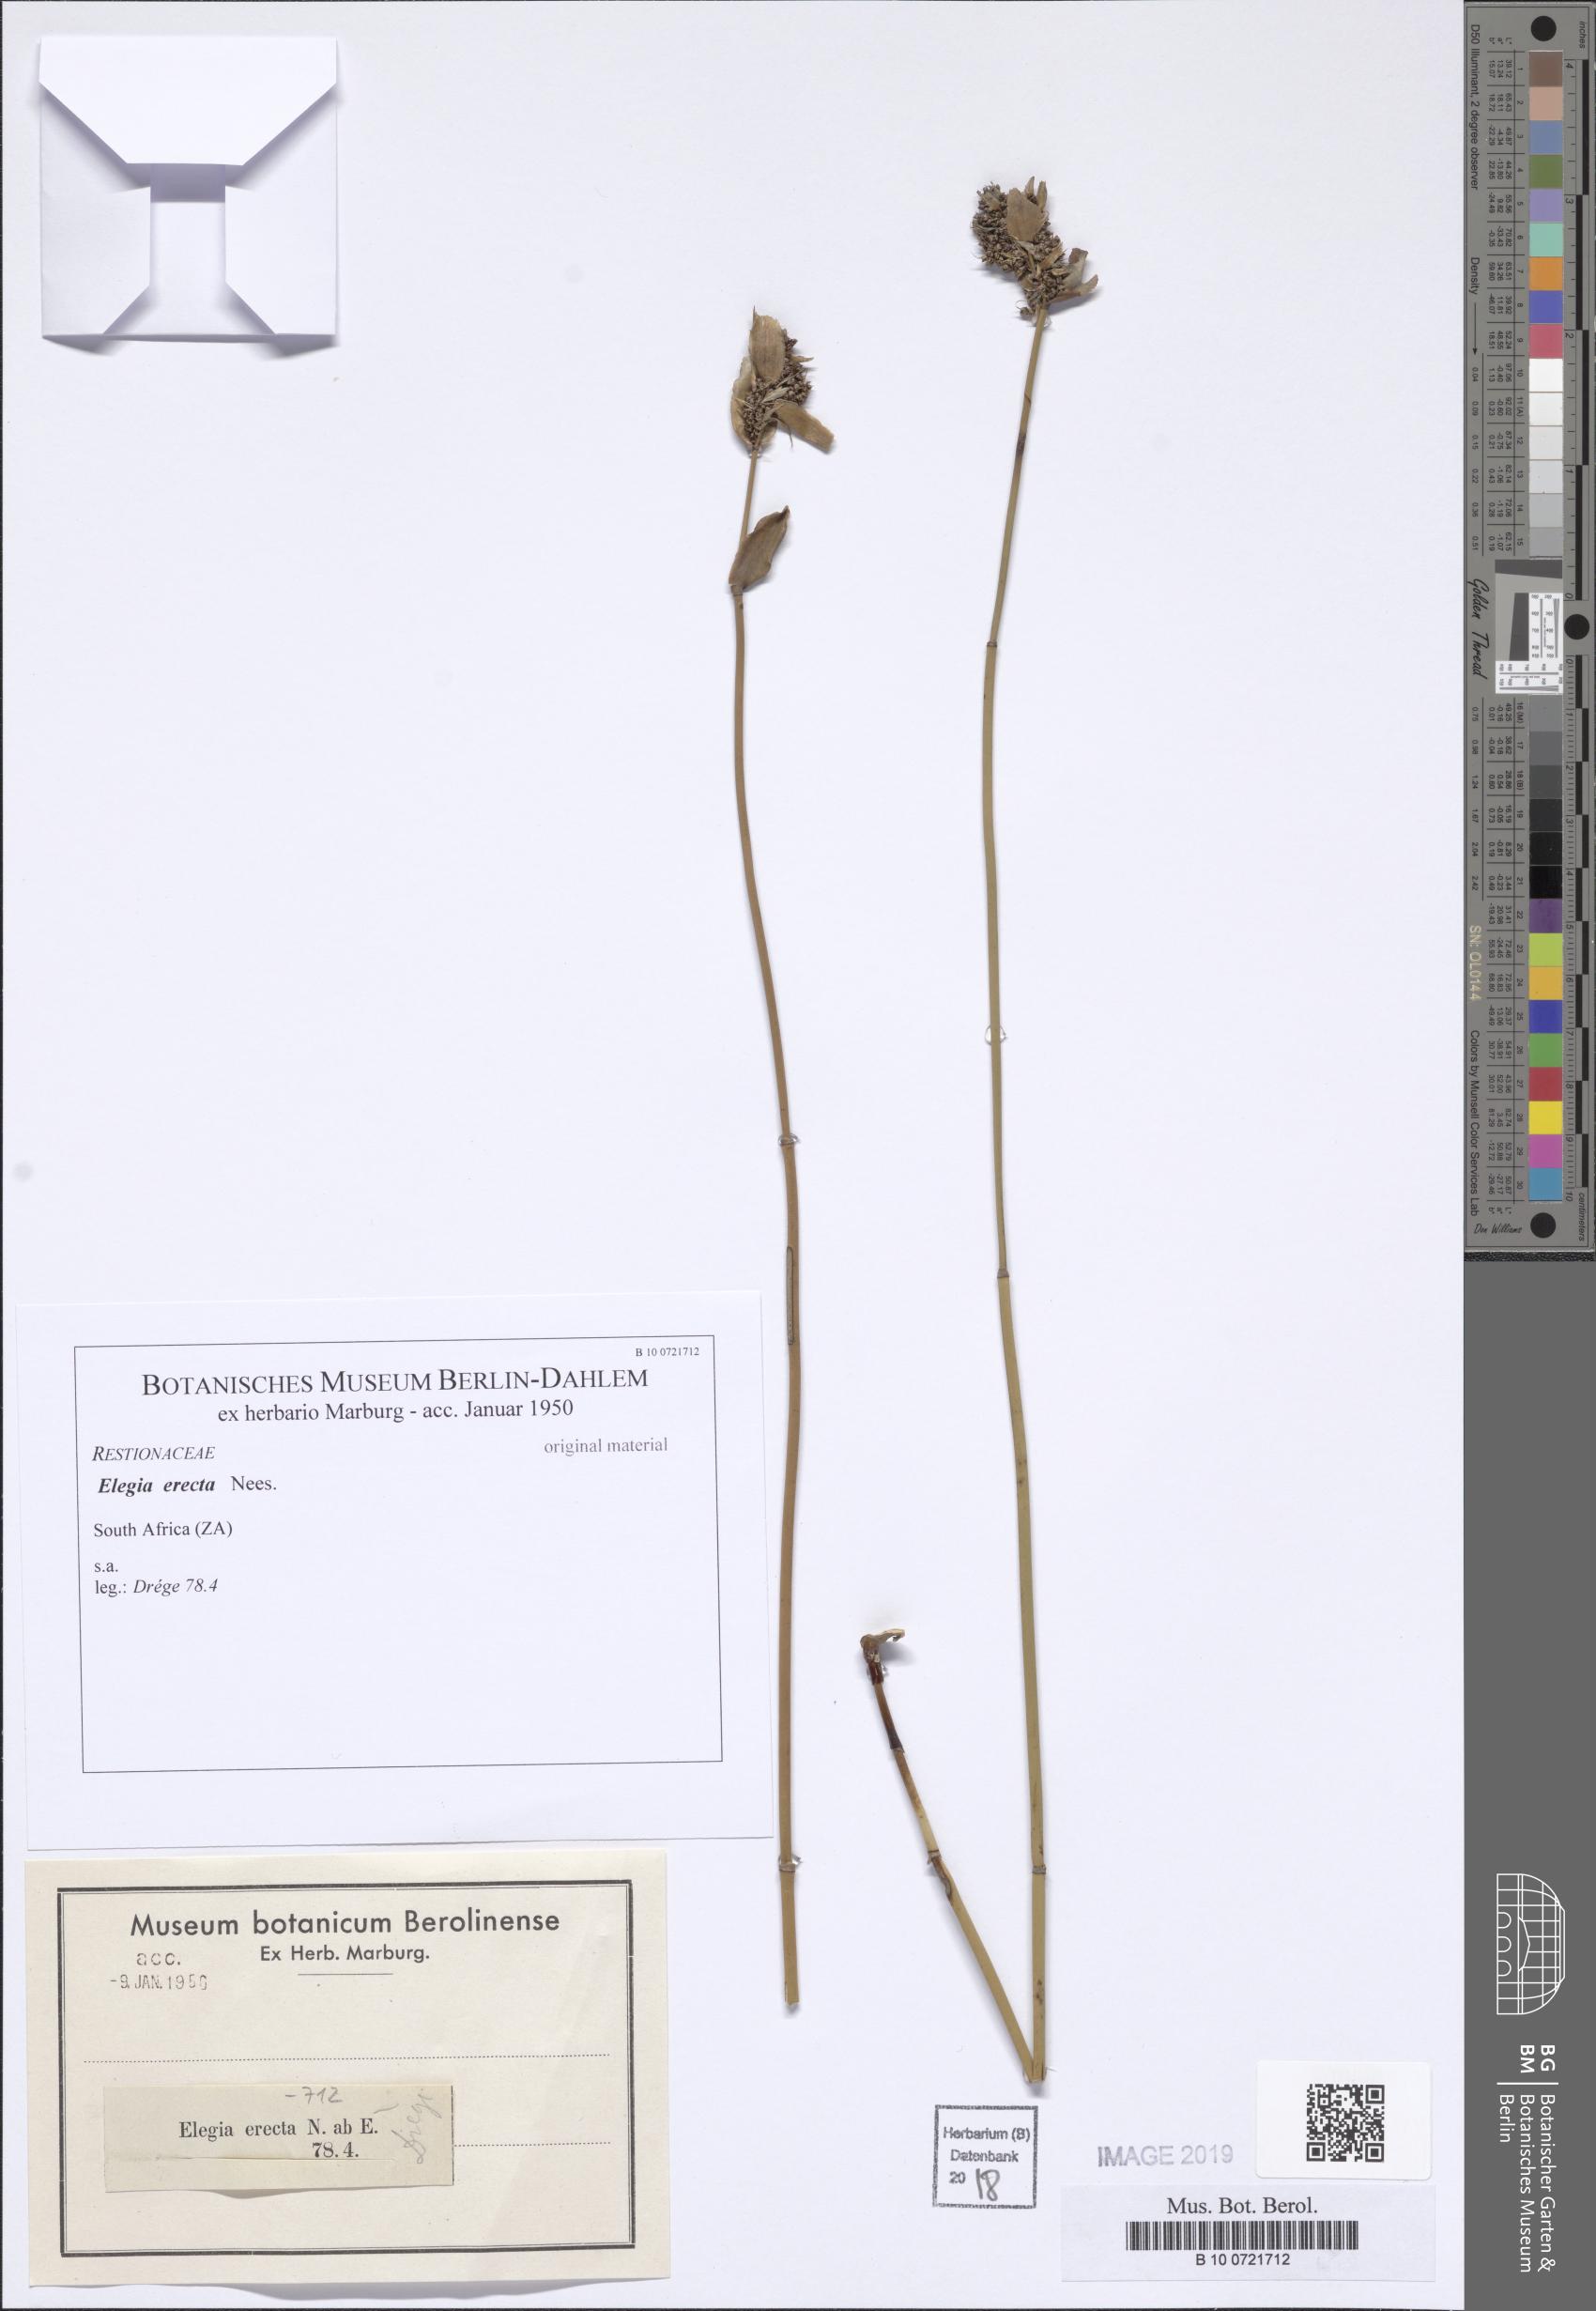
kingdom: Plantae
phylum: Tracheophyta
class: Liliopsida
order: Poales
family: Restionaceae
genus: Elegia
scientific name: Elegia
